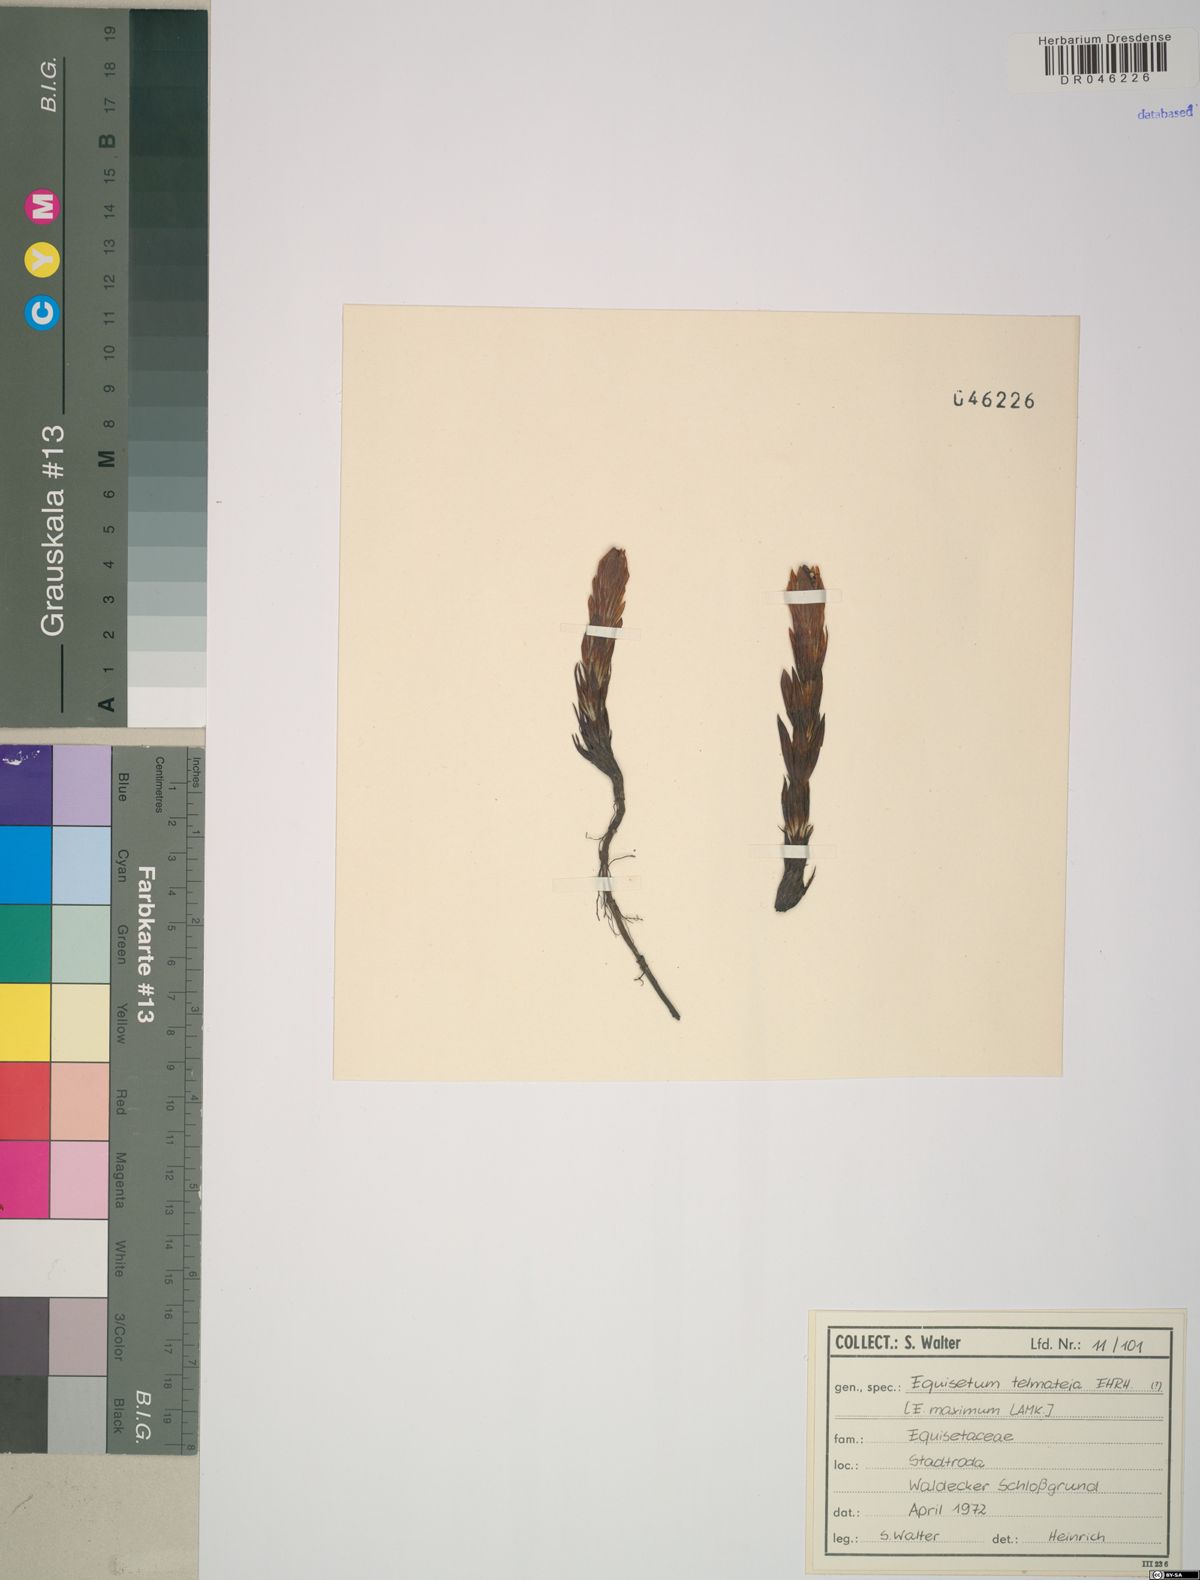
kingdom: Plantae
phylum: Tracheophyta
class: Polypodiopsida
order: Equisetales
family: Equisetaceae
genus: Equisetum
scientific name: Equisetum telmateia
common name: Great horsetail
